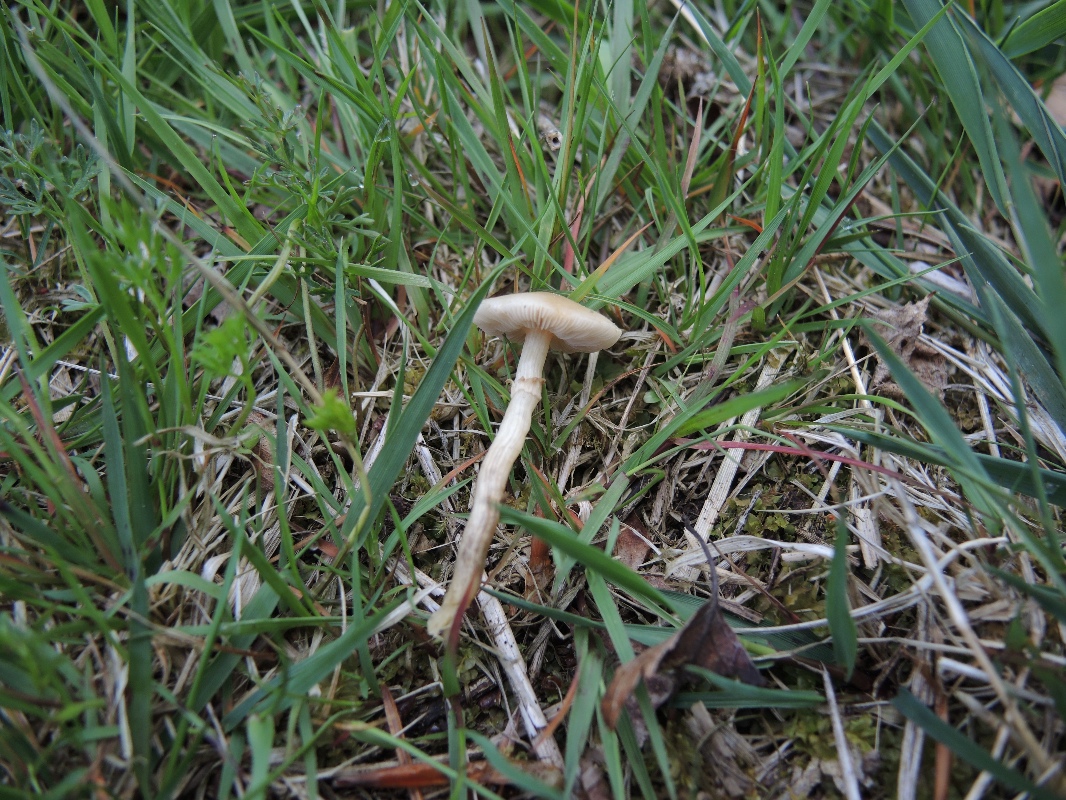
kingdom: Fungi
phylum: Basidiomycota
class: Agaricomycetes
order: Agaricales
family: Strophariaceae
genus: Agrocybe
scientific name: Agrocybe praecox
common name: tidlig agerhat
